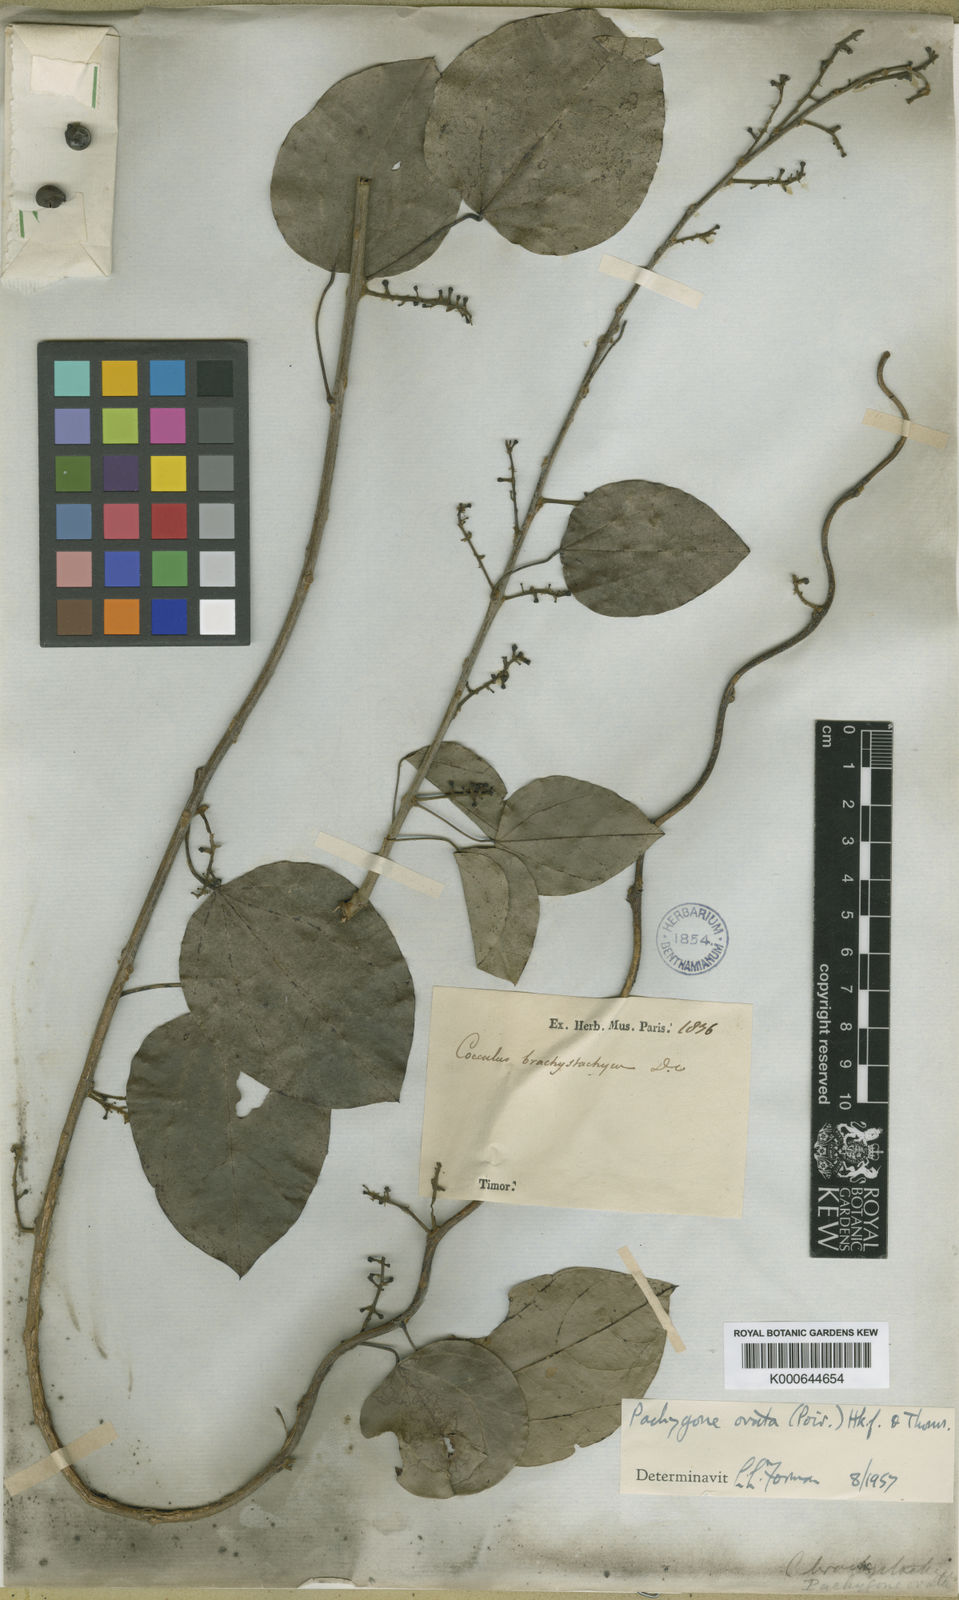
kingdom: Plantae
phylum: Tracheophyta
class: Magnoliopsida
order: Ranunculales
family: Menispermaceae
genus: Pachygone
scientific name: Pachygone ovata
